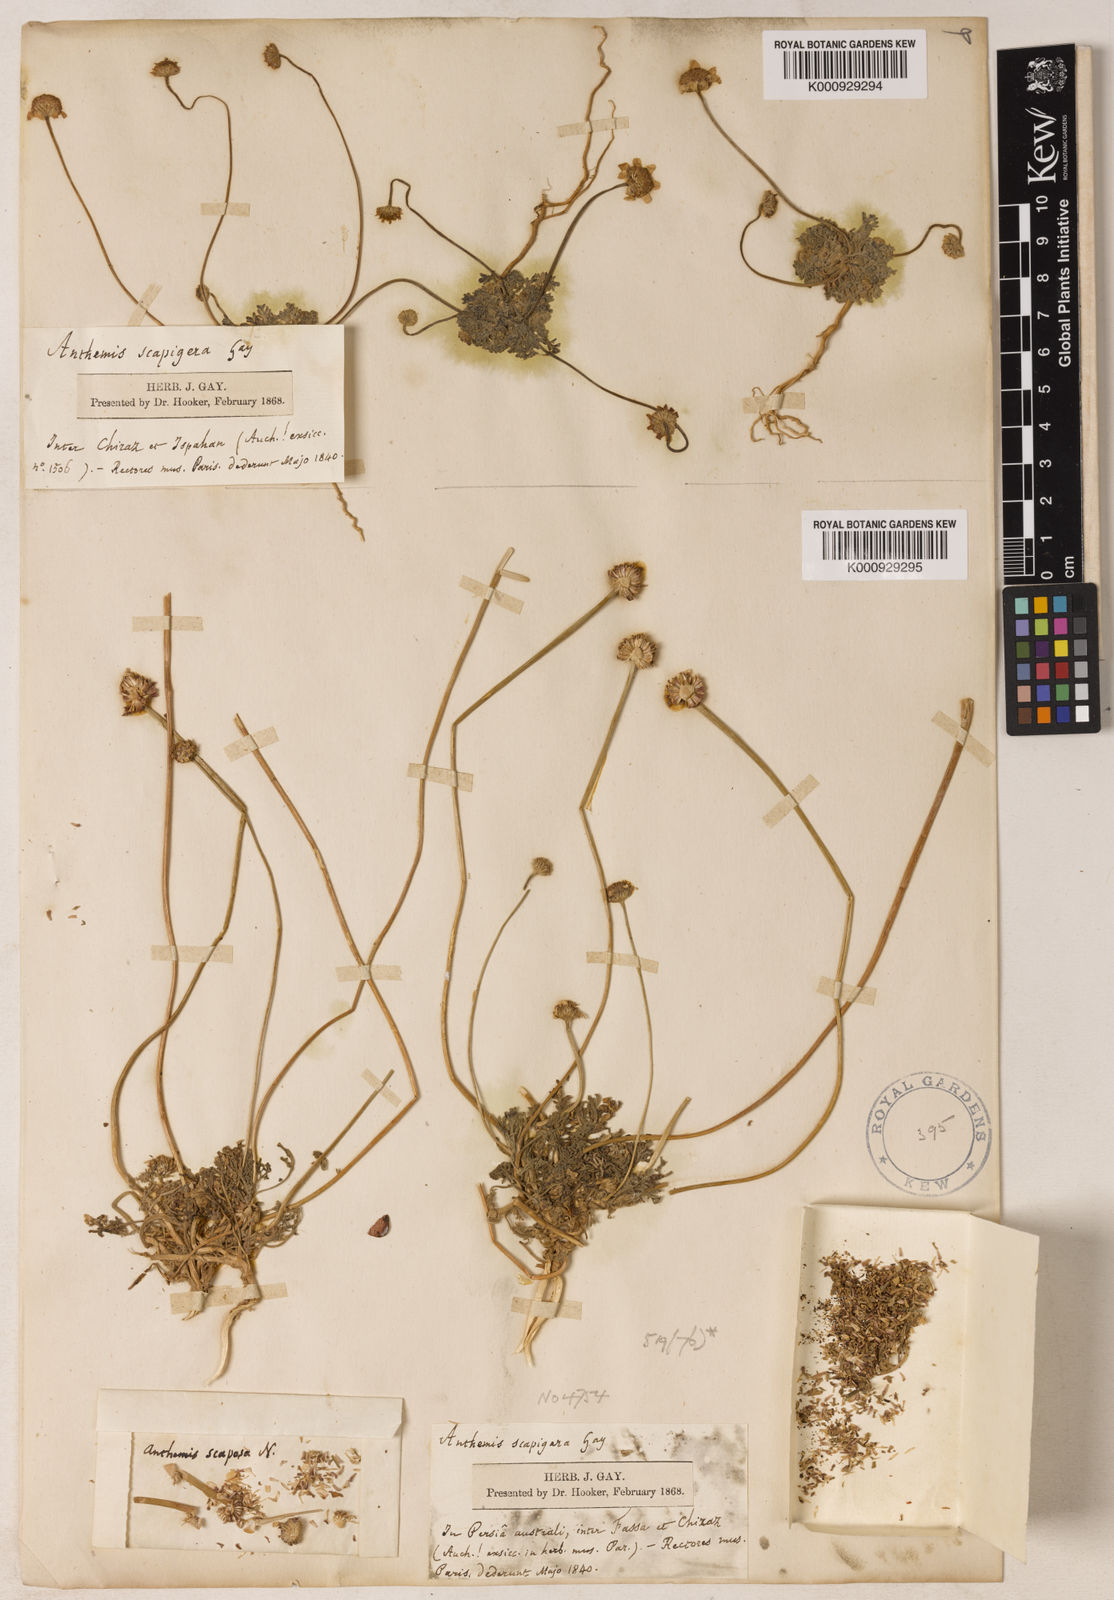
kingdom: Plantae
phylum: Tracheophyta
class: Magnoliopsida
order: Asterales
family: Asteraceae
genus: Anthemis
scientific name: Anthemis gayana
